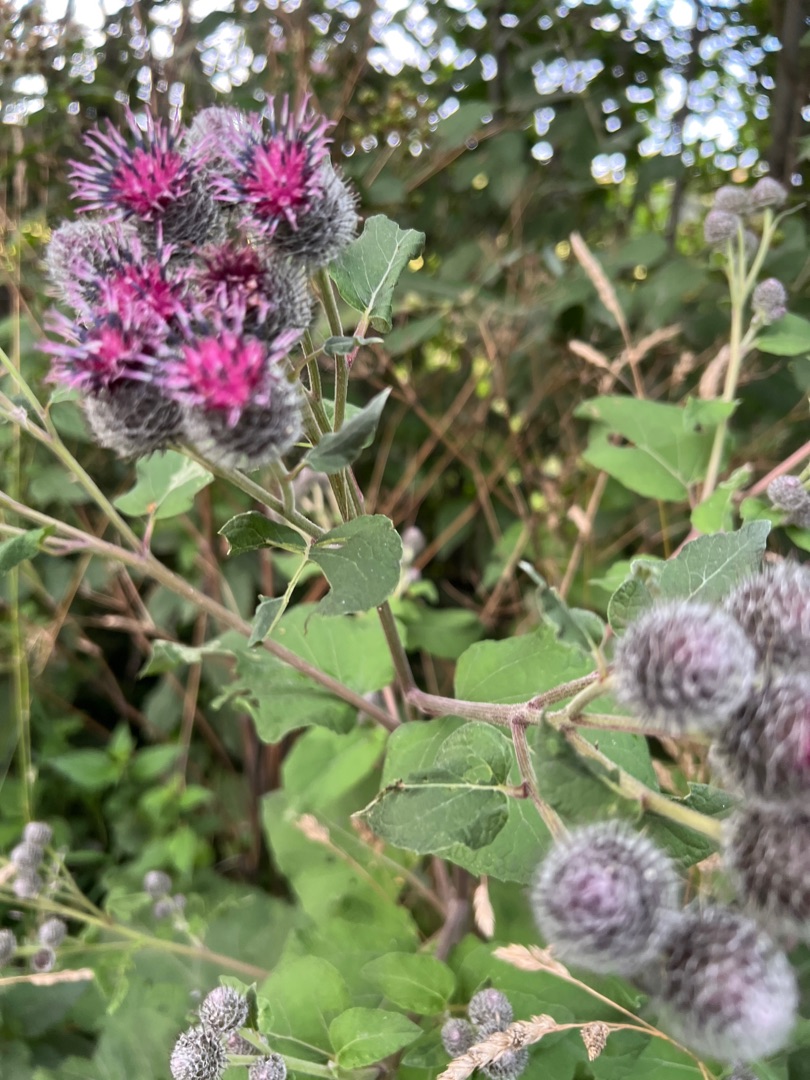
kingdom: Plantae
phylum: Tracheophyta
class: Magnoliopsida
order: Asterales
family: Asteraceae
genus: Arctium
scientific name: Arctium tomentosum
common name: Filtet burre
